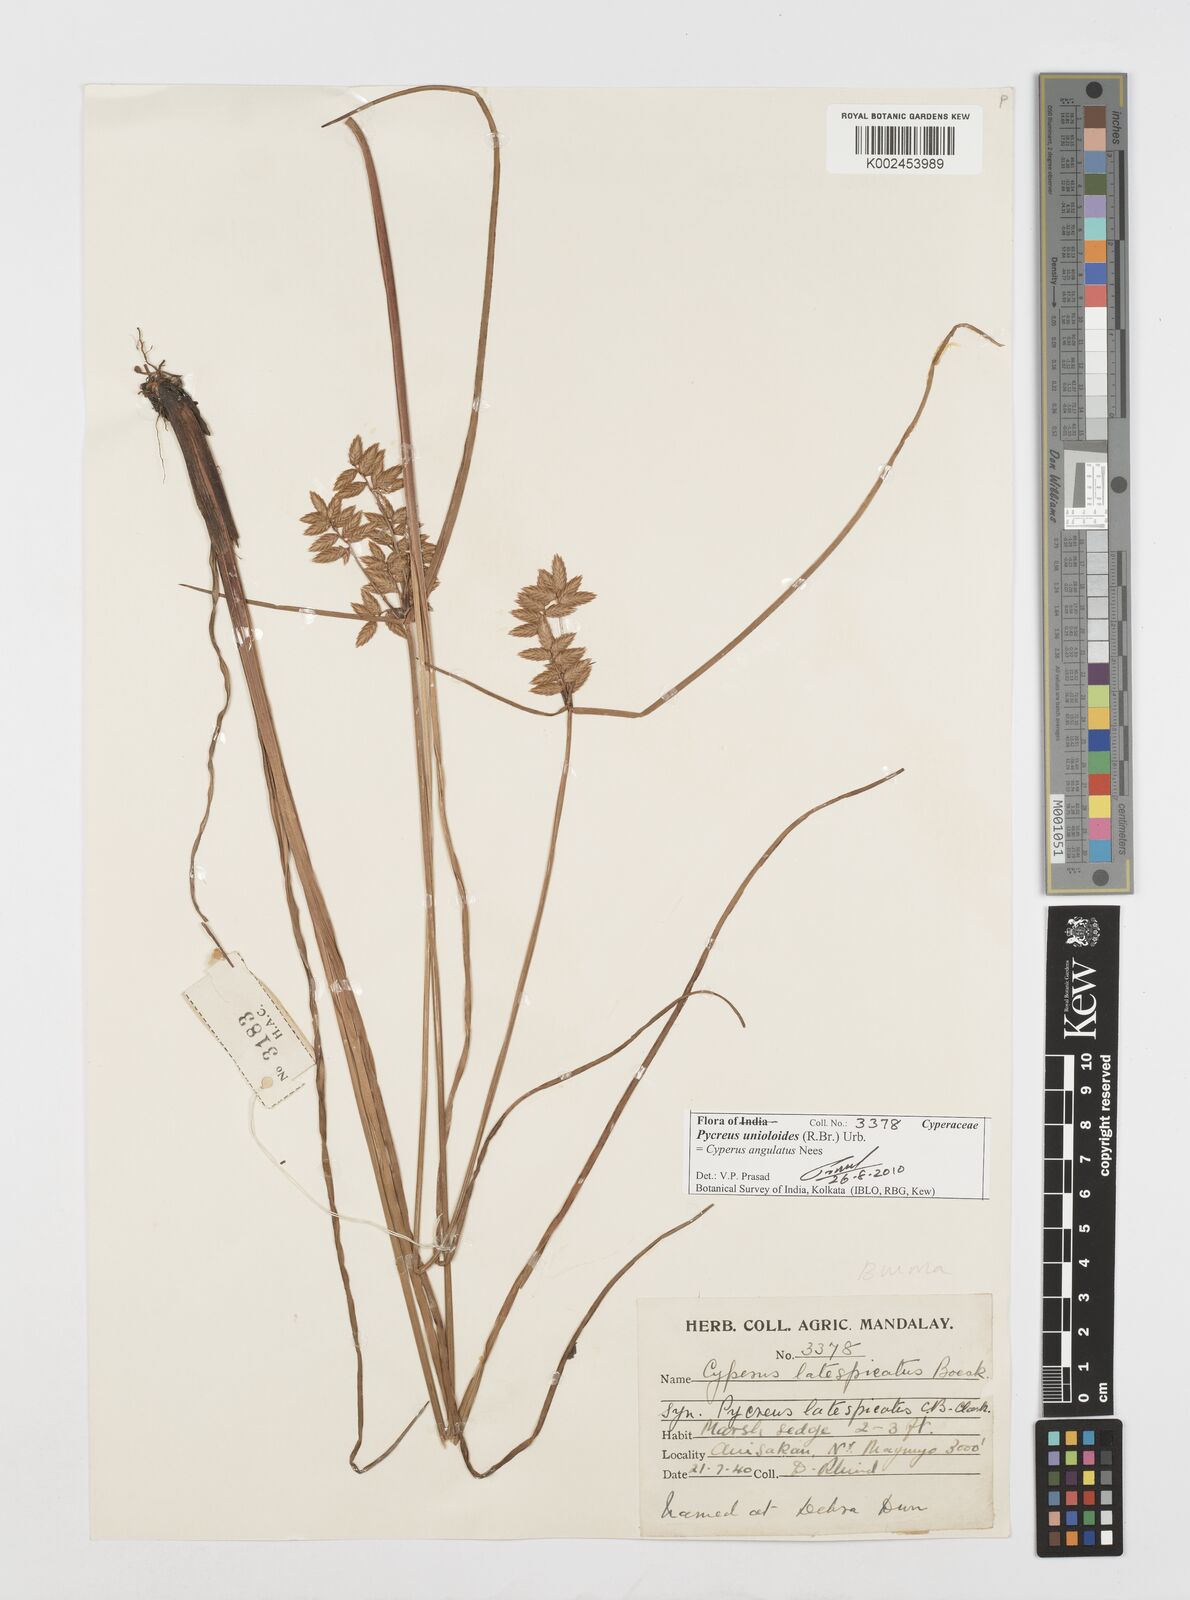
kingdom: Plantae
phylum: Tracheophyta
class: Liliopsida
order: Poales
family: Cyperaceae
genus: Cyperus
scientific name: Cyperus unioloides
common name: Uniola flatsedge
